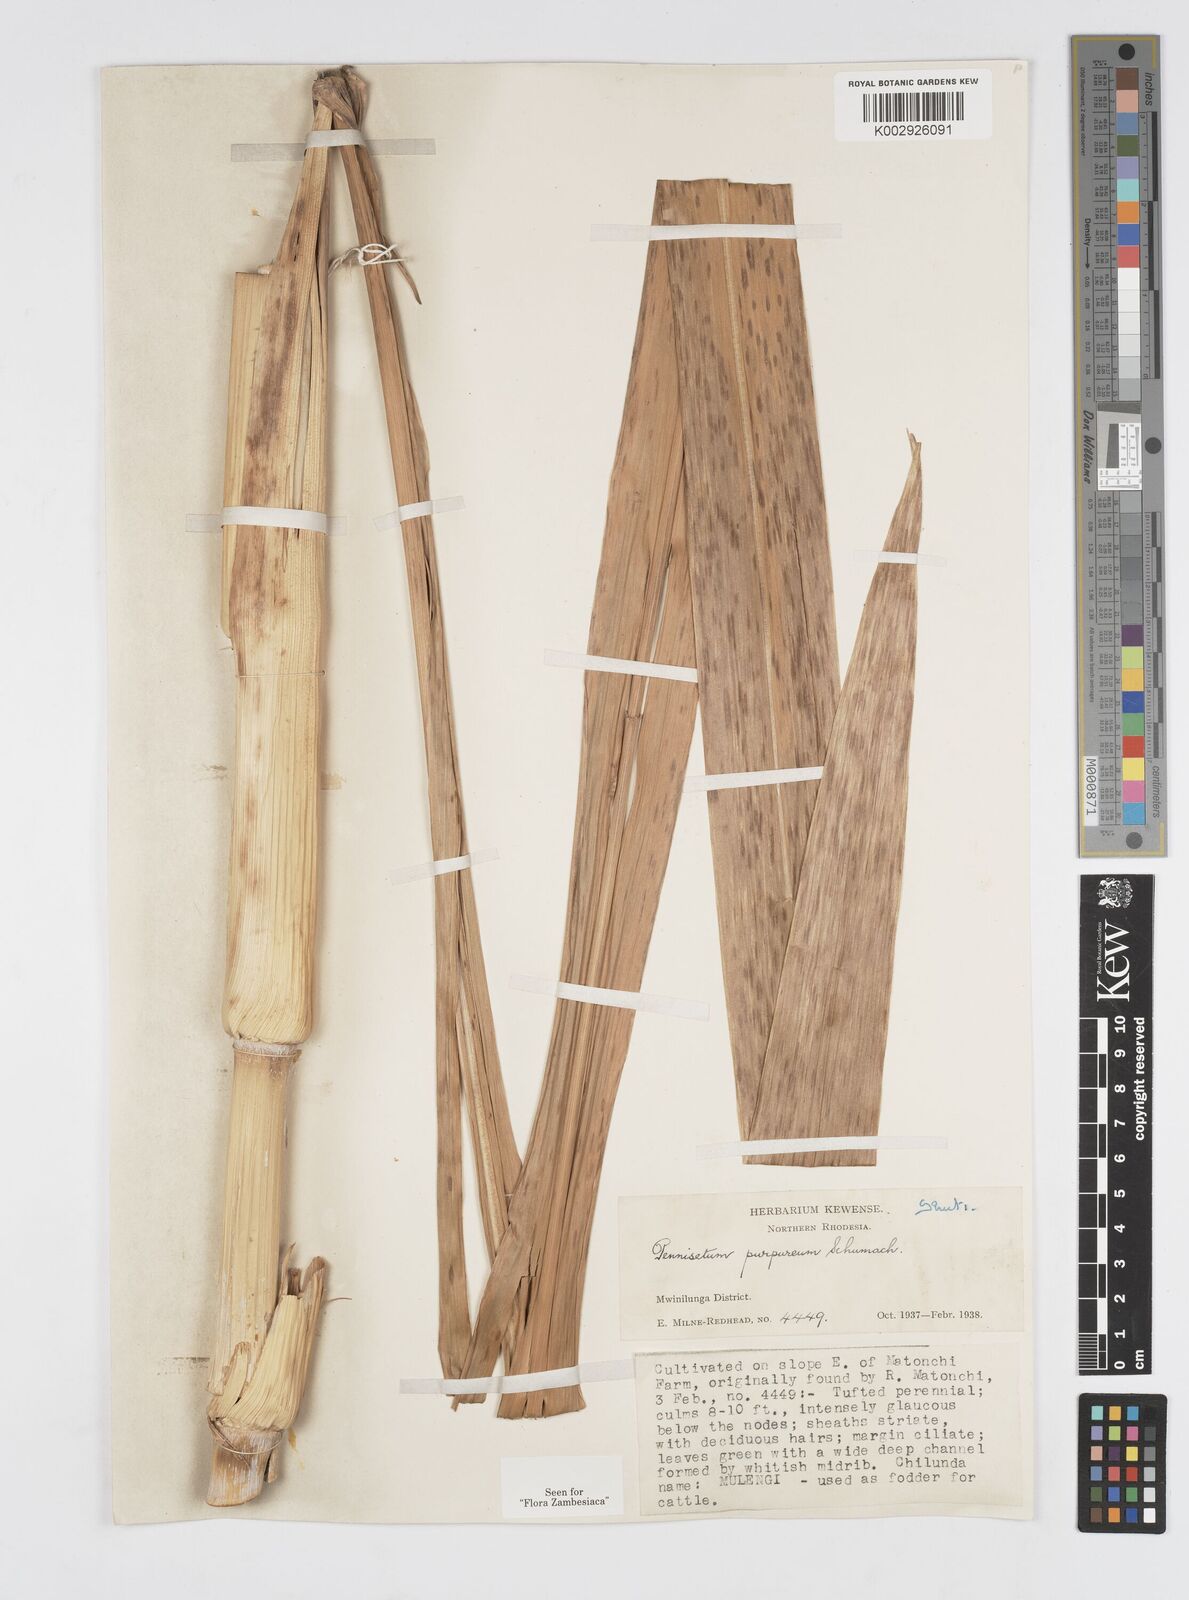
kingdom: Plantae
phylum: Tracheophyta
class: Liliopsida
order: Poales
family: Poaceae
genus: Cenchrus
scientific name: Cenchrus purpureus
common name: Elephant grass
